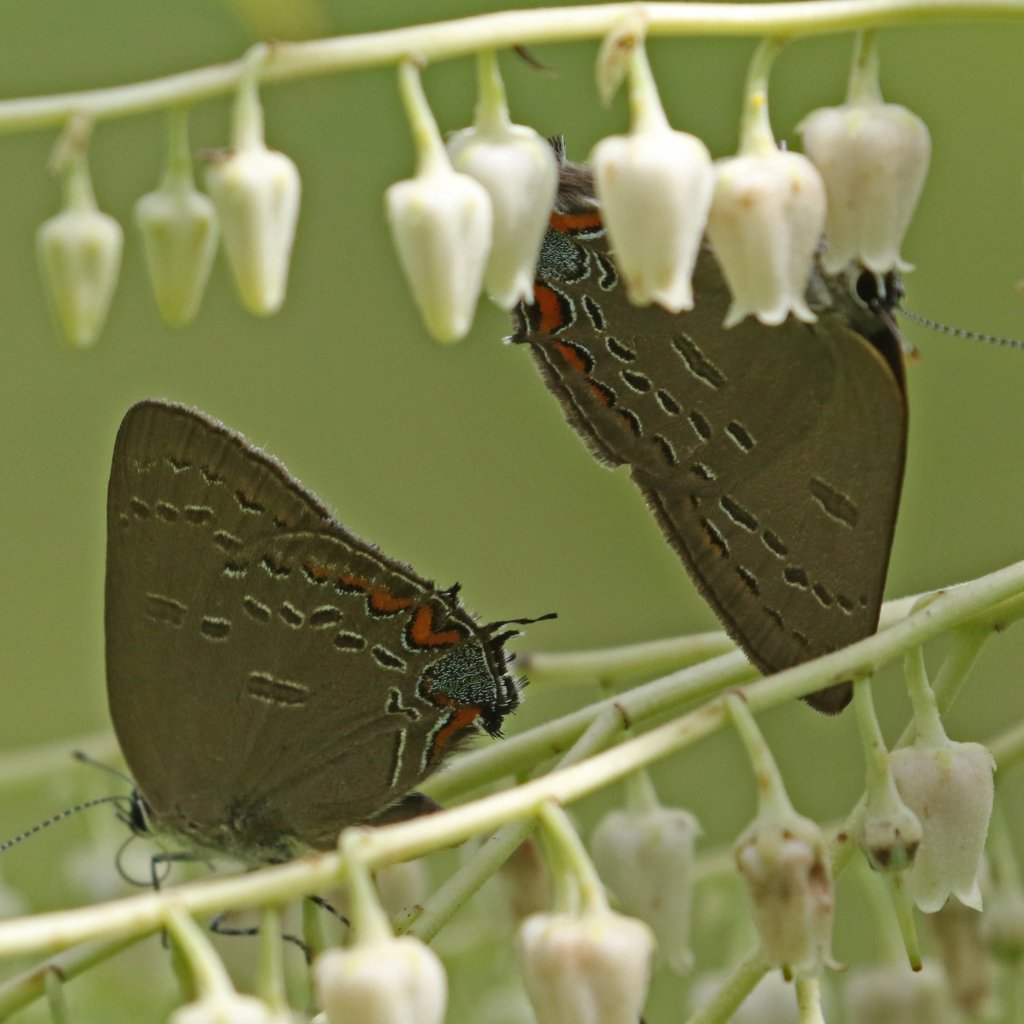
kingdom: Animalia
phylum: Arthropoda
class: Insecta
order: Lepidoptera
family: Lycaenidae
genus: Satyrium
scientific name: Satyrium edwardsii
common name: Edwards' Hairstreak
